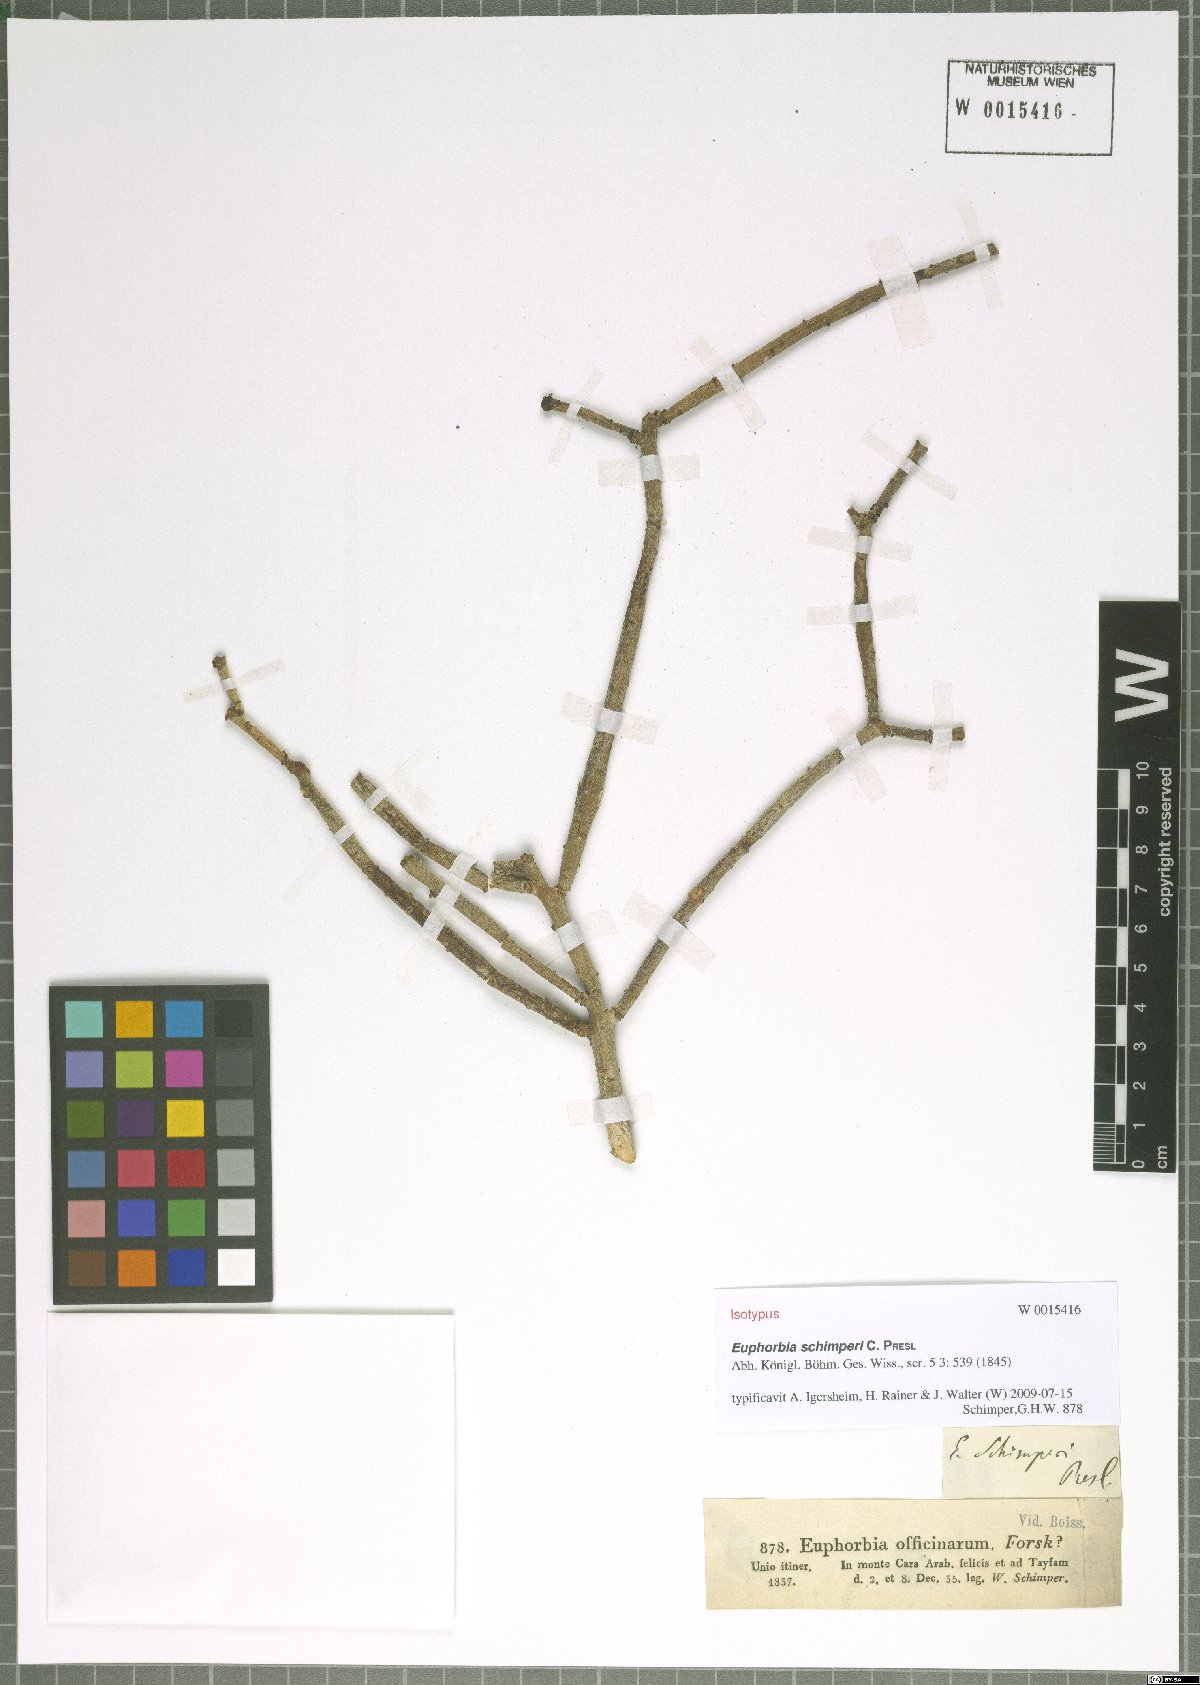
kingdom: Plantae
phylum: Tracheophyta
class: Magnoliopsida
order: Malpighiales
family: Euphorbiaceae
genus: Euphorbia
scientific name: Euphorbia schimperi
